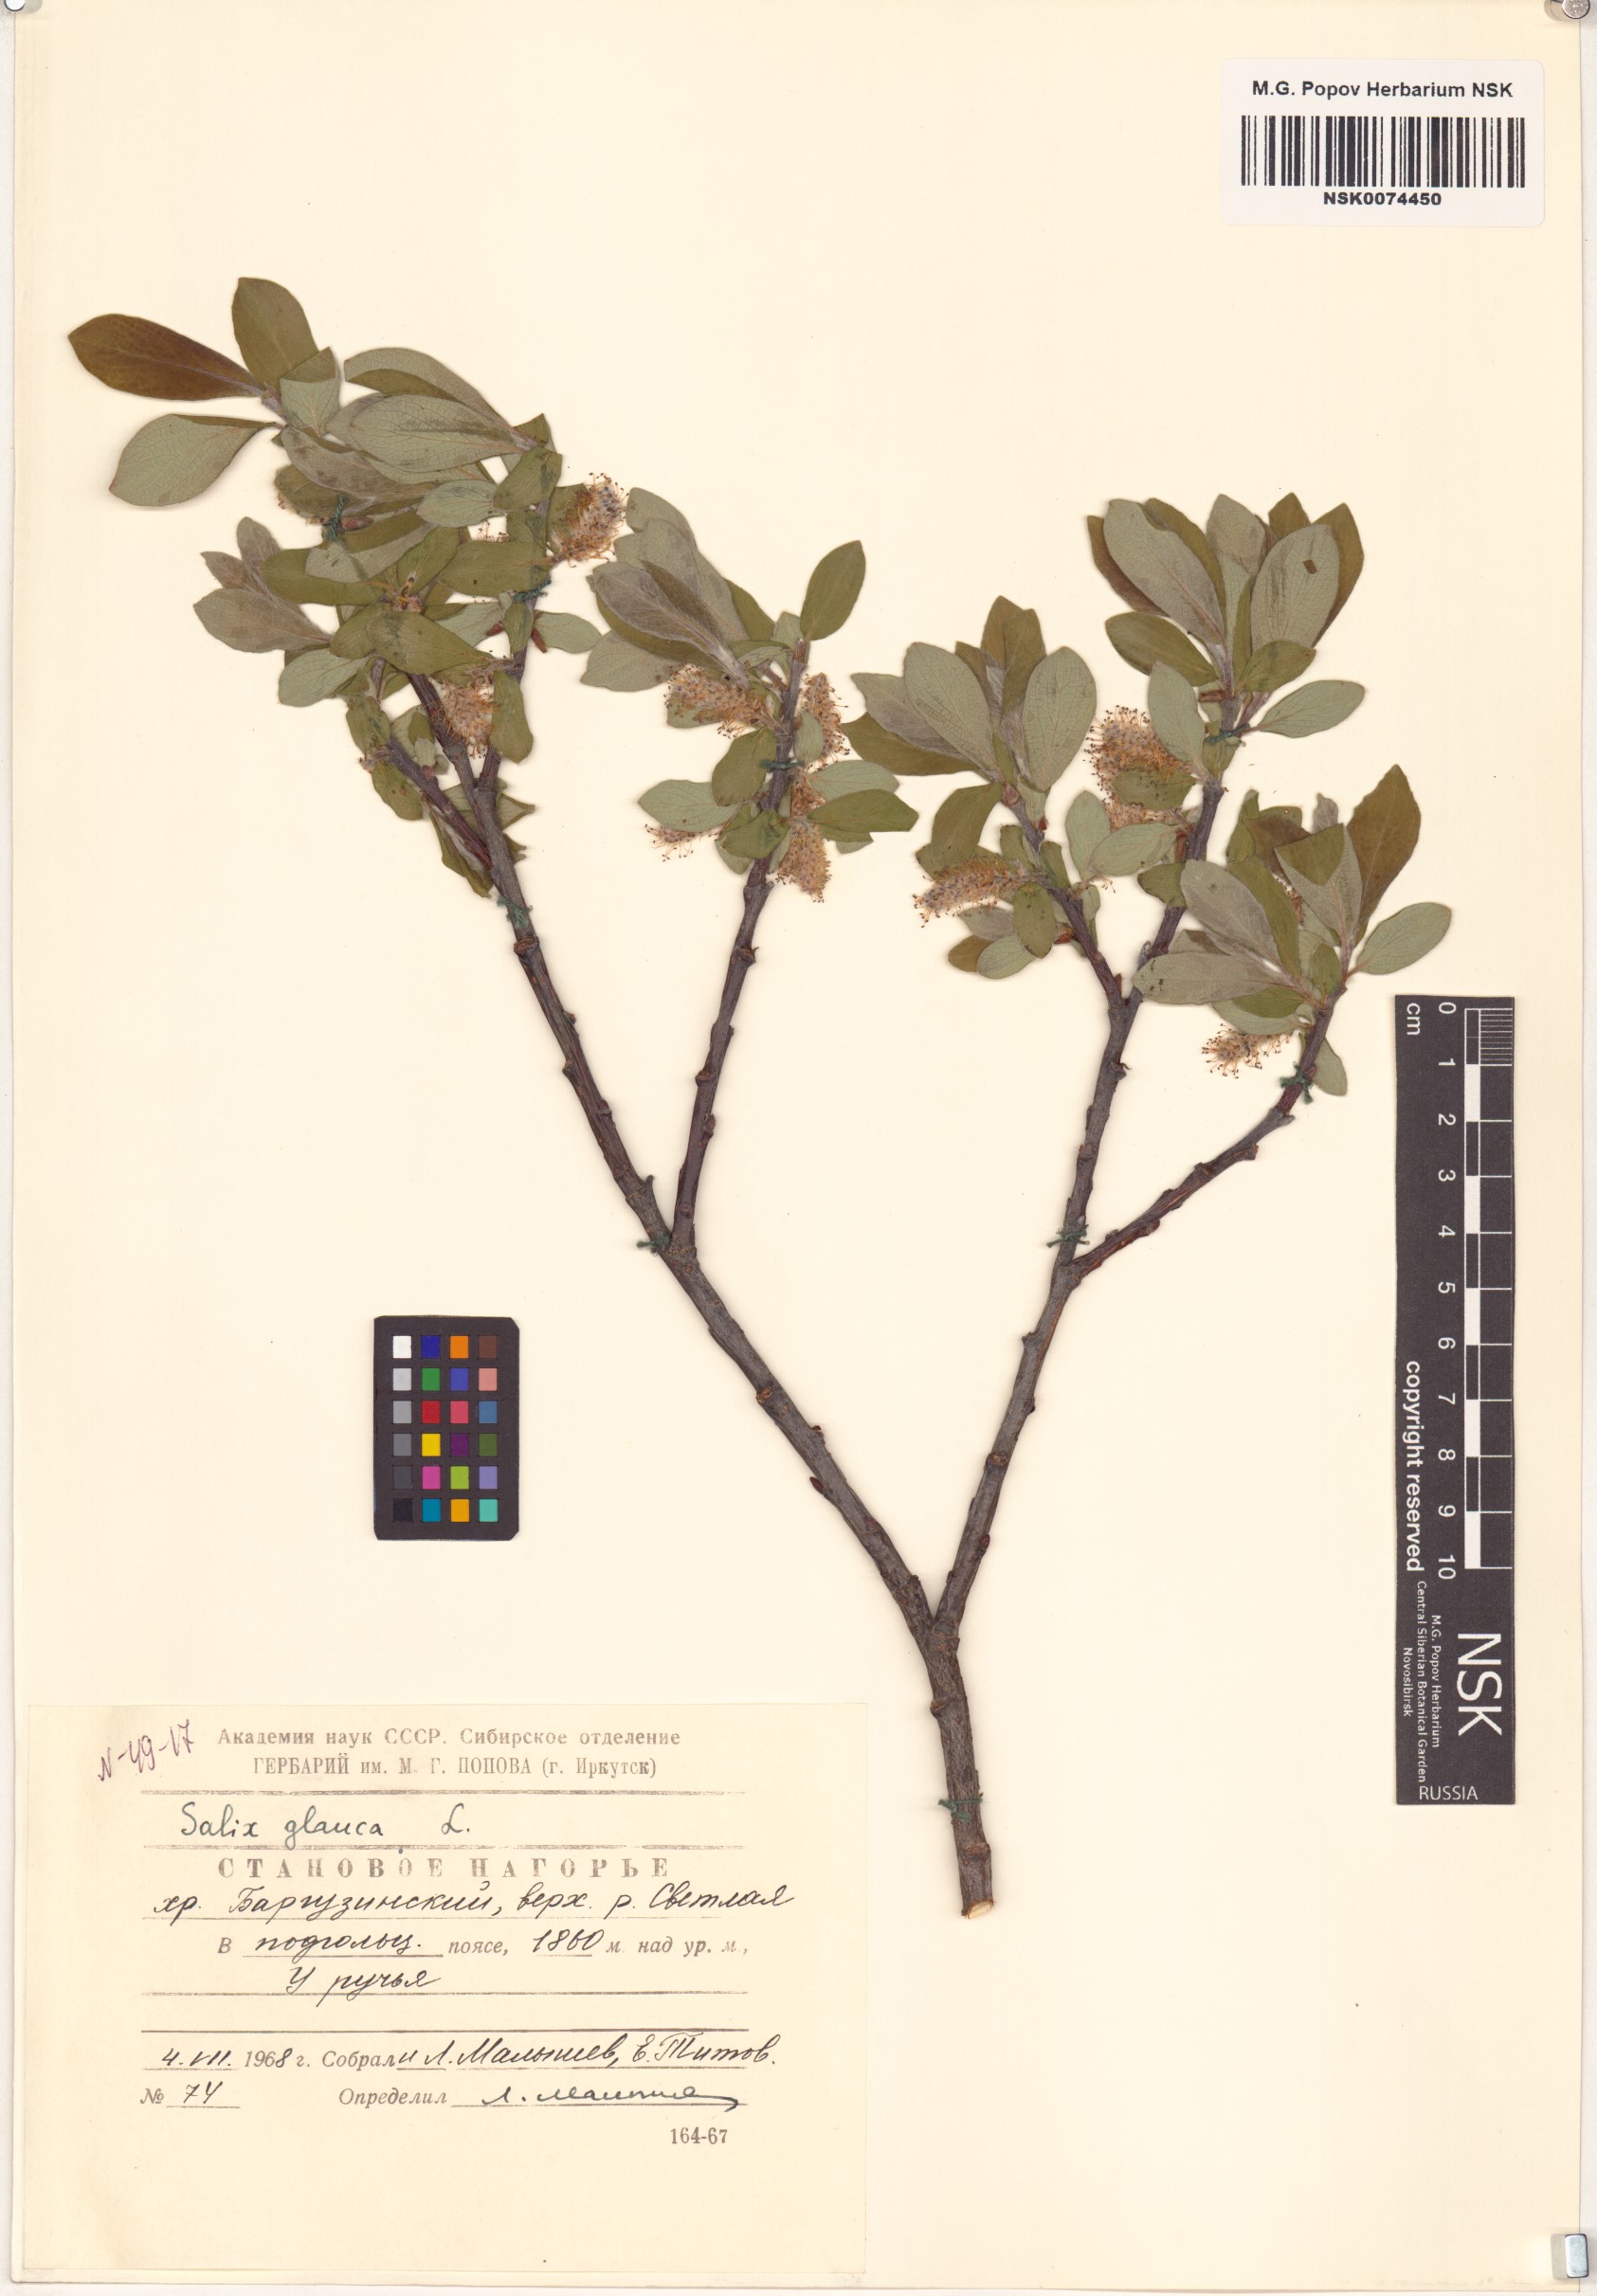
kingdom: Plantae
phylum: Tracheophyta
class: Magnoliopsida
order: Malpighiales
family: Salicaceae
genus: Salix
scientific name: Salix glauca
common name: Glaucous willow
